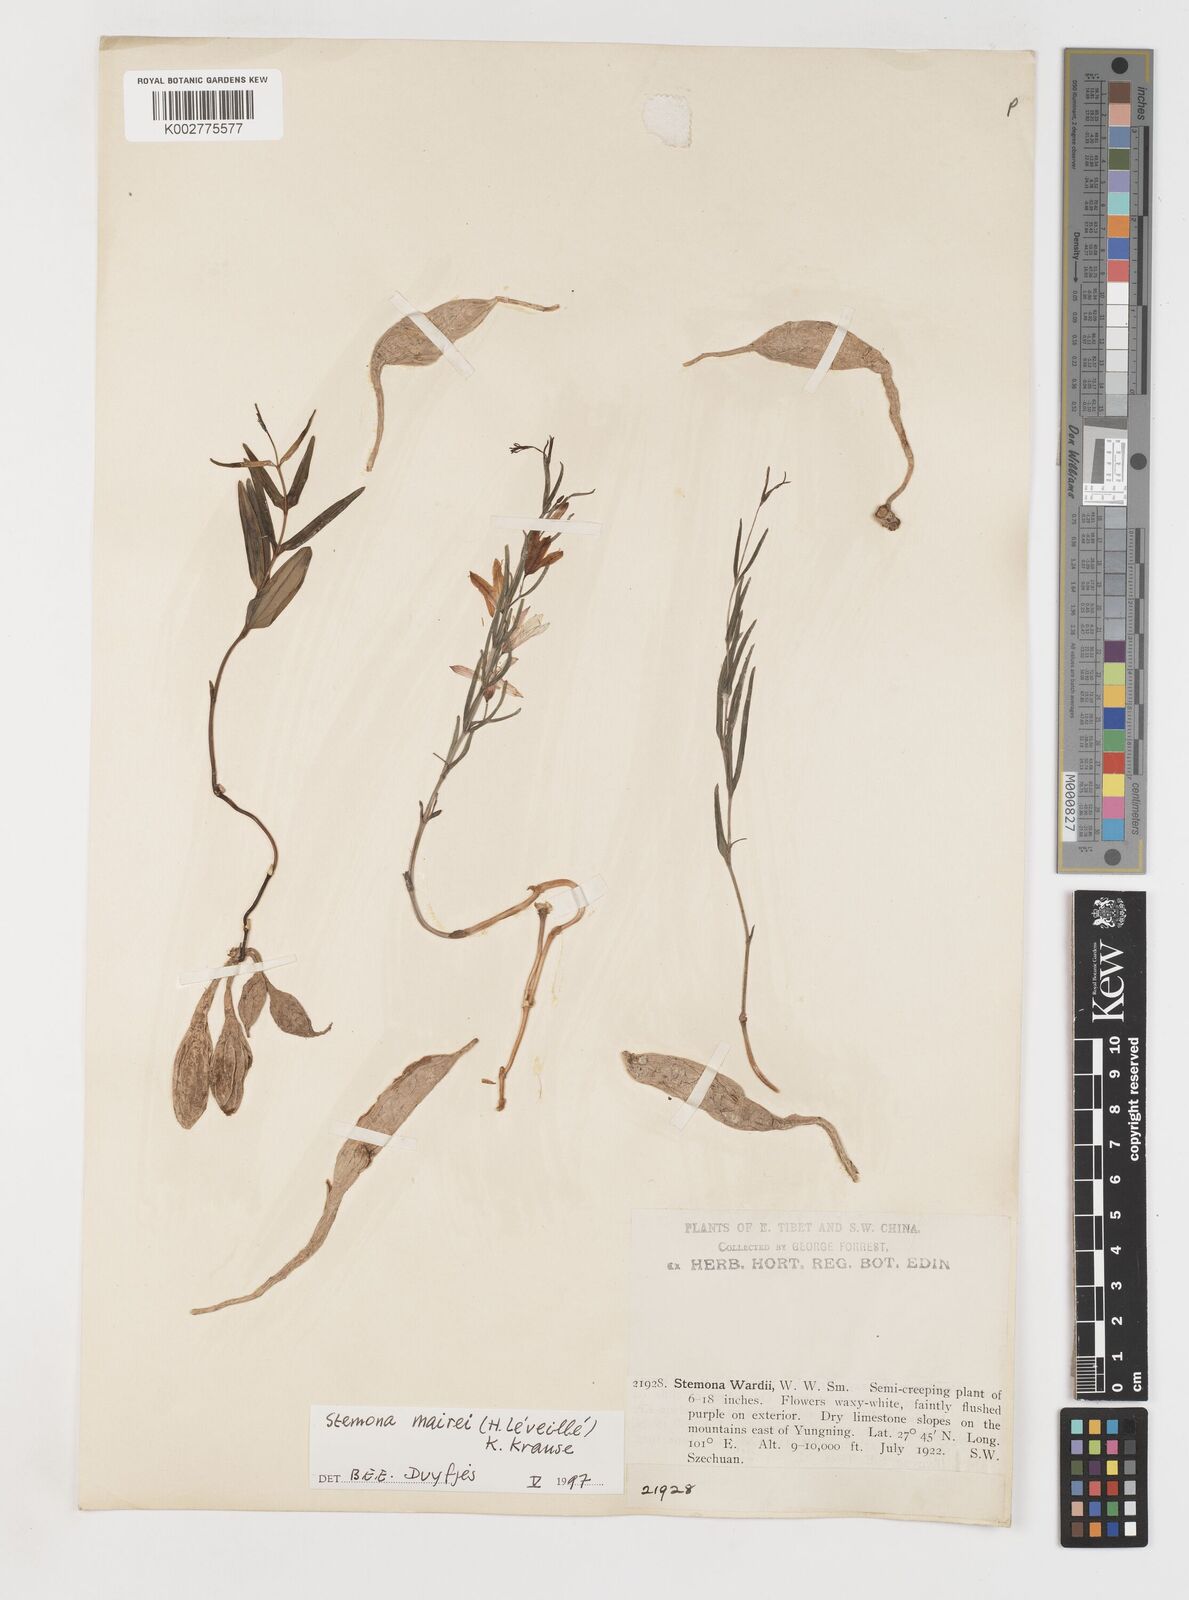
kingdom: Plantae
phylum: Tracheophyta
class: Liliopsida
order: Pandanales
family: Stemonaceae
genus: Stemona
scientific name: Stemona mairei
